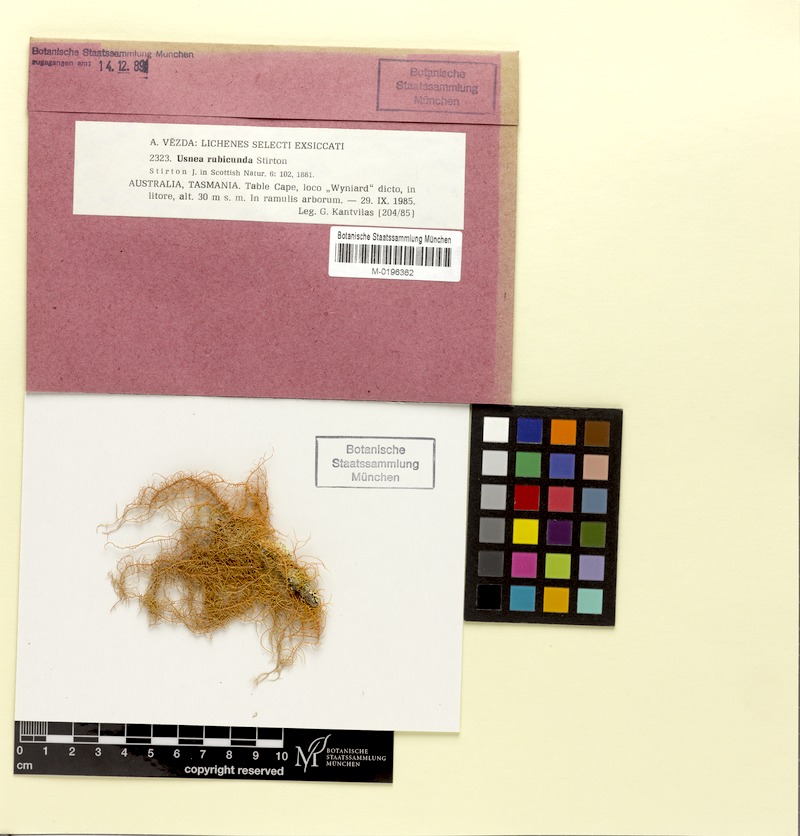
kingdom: Fungi
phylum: Ascomycota
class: Lecanoromycetes
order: Lecanorales
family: Parmeliaceae
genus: Usnea
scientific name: Usnea rubicunda
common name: Red beard lichen
